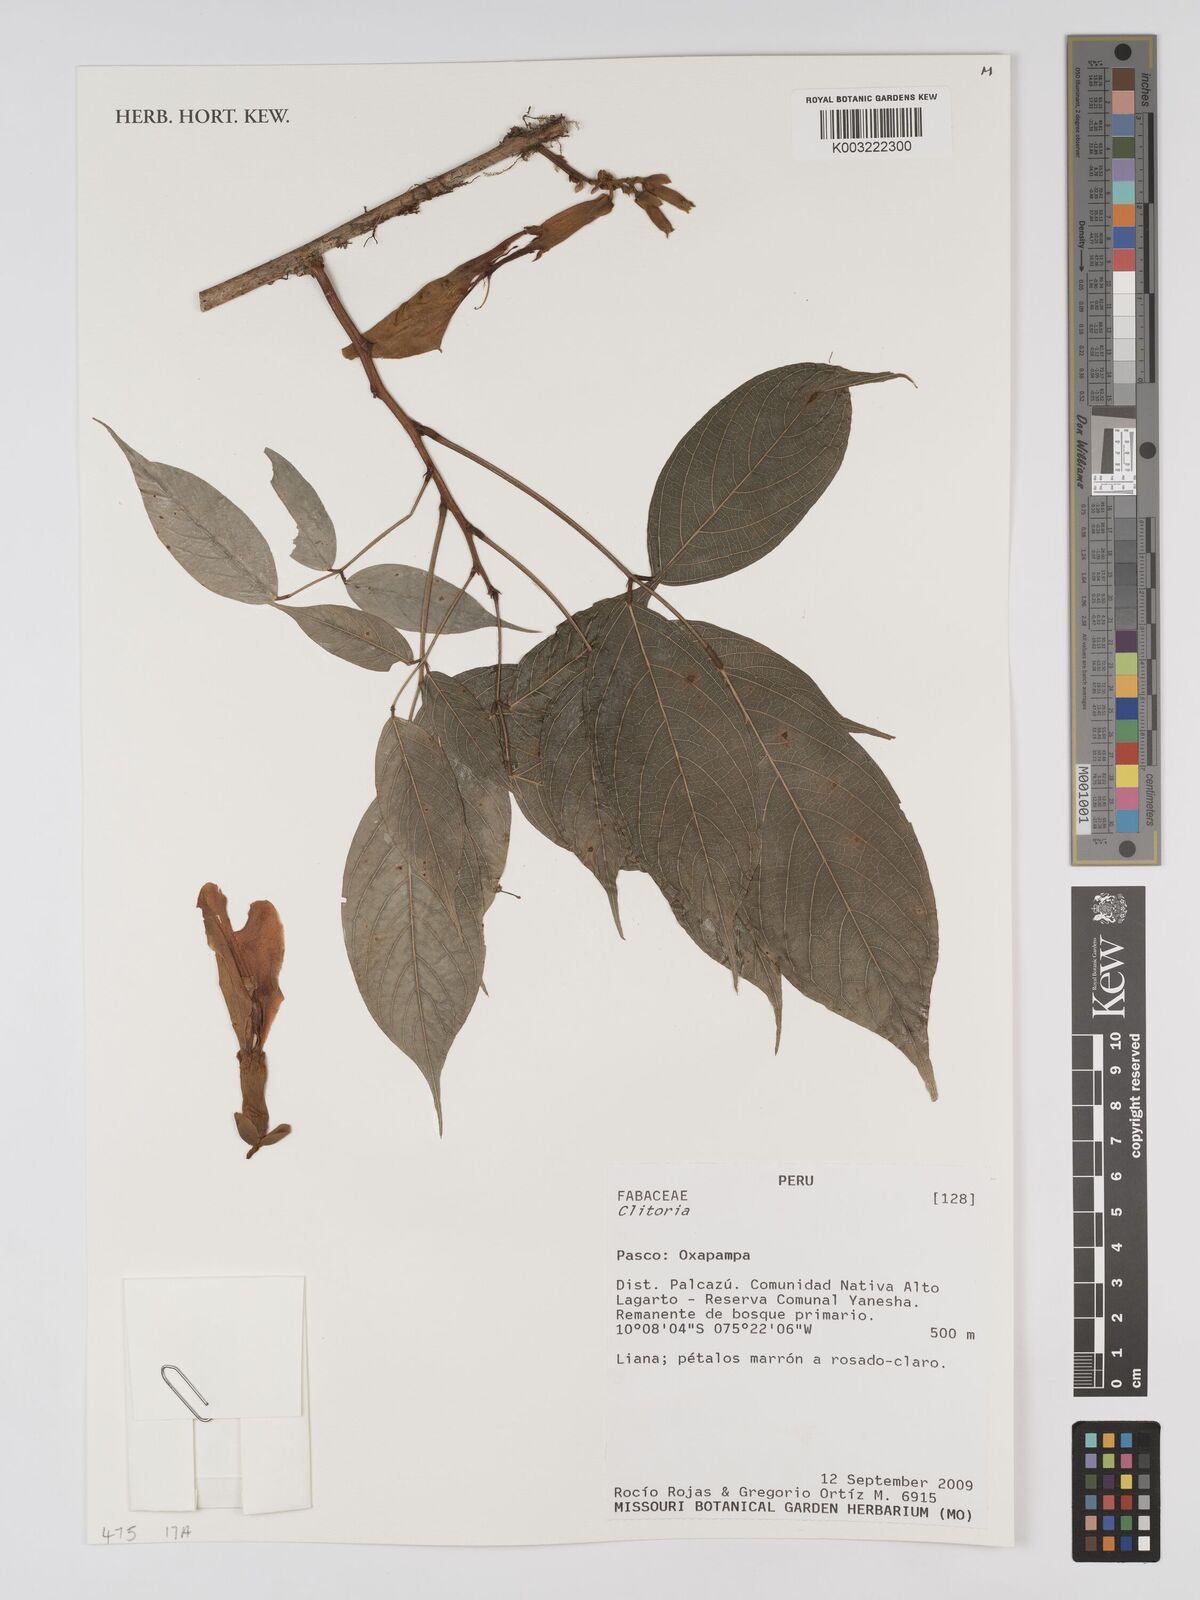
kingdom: Plantae
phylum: Tracheophyta
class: Magnoliopsida
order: Fabales
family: Fabaceae
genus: Clitoria
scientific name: Clitoria
